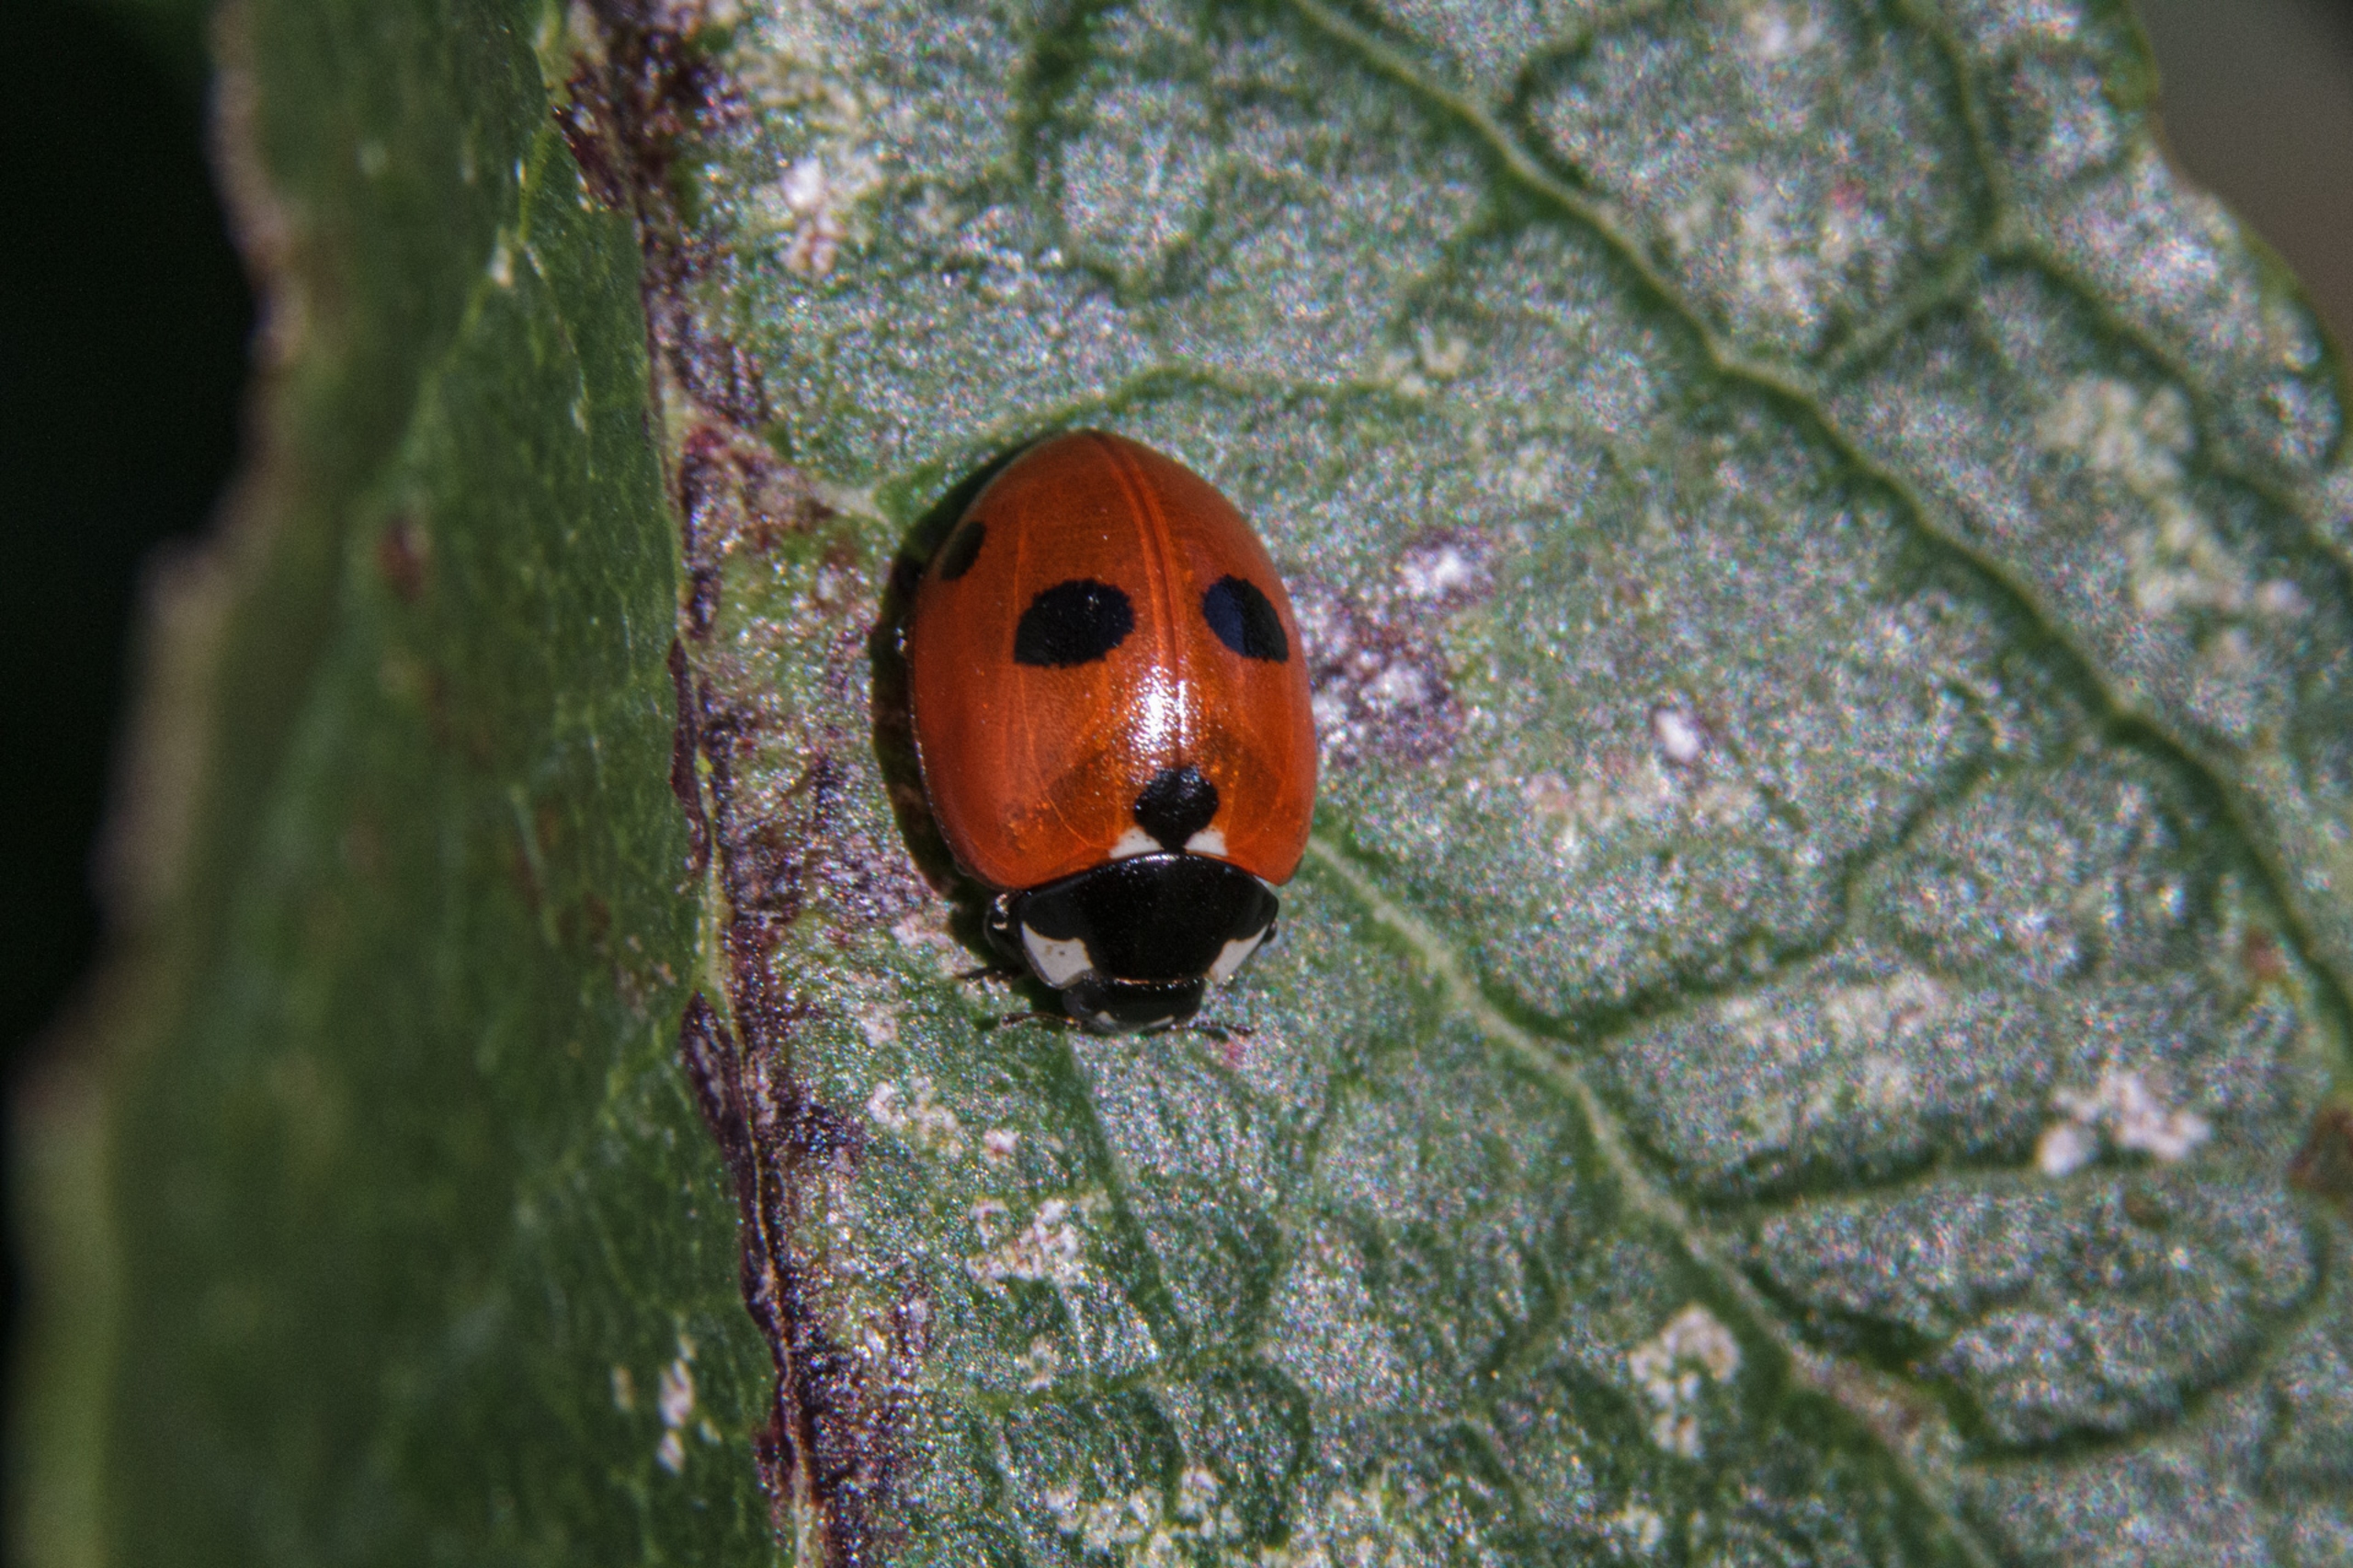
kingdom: Animalia
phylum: Arthropoda
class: Insecta
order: Coleoptera
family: Coccinellidae
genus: Coccinella
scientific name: Coccinella quinquepunctata
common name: Femplettet mariehøne
